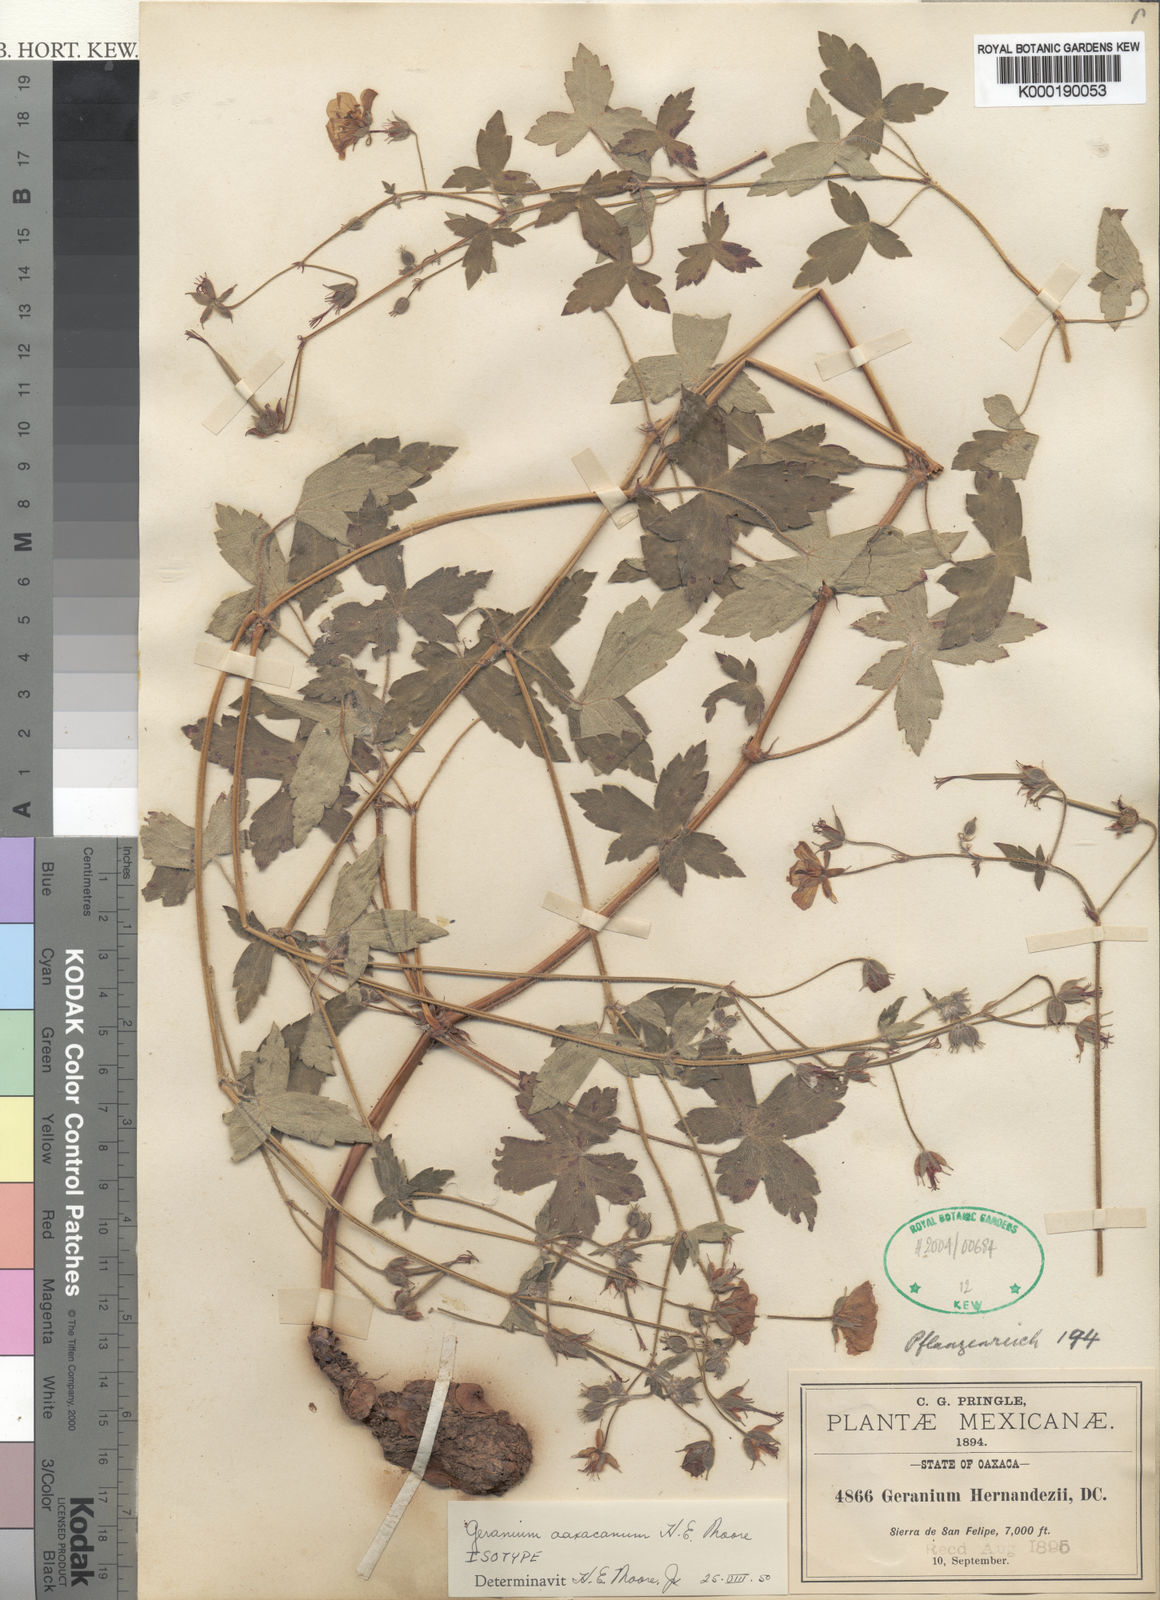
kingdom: Plantae
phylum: Tracheophyta
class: Magnoliopsida
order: Geraniales
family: Geraniaceae
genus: Geranium
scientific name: Geranium oaxacanum
